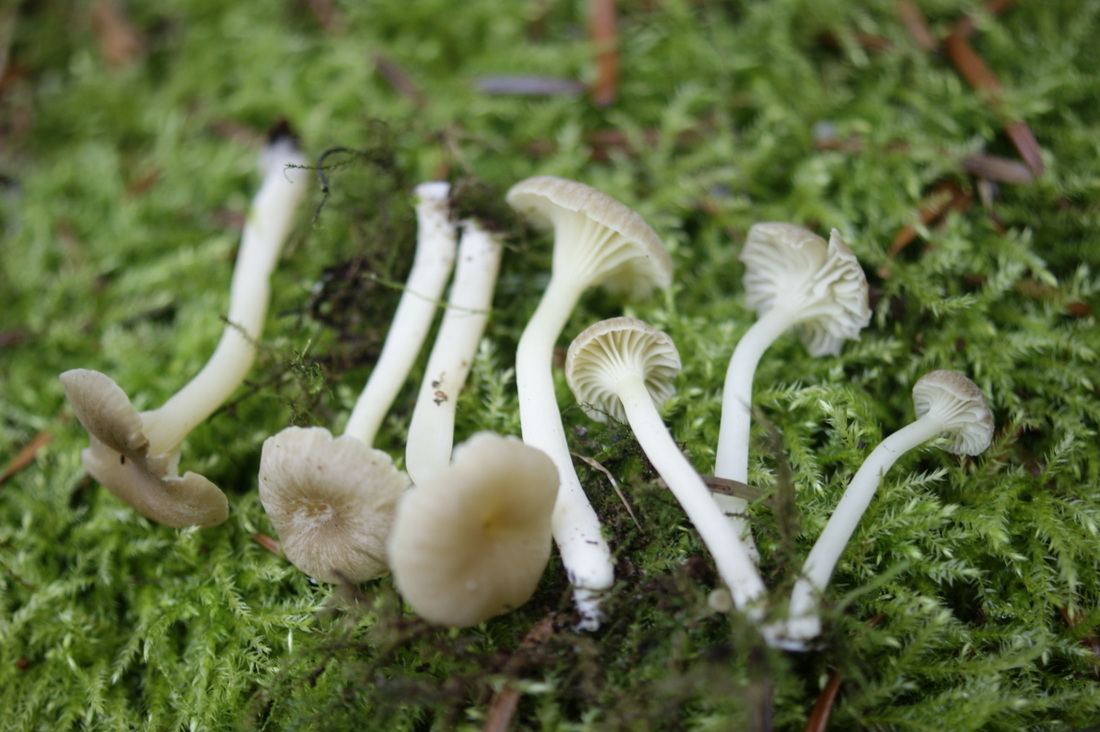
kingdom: Fungi
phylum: Basidiomycota
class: Agaricomycetes
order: Agaricales
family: Hygrophoraceae
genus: Chrysomphalina
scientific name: Chrysomphalina grossula
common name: stød-gyldenblad
